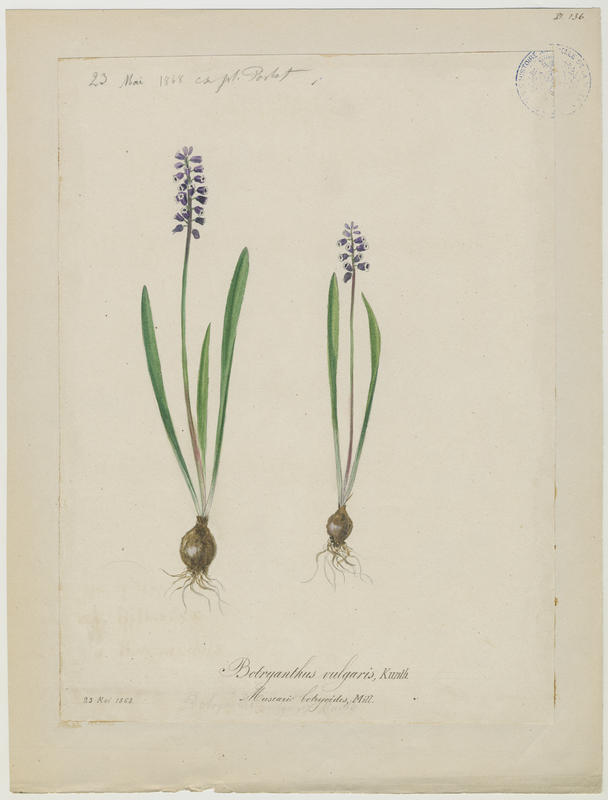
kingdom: Plantae
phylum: Tracheophyta
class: Liliopsida
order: Asparagales
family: Asparagaceae
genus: Muscari
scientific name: Muscari botryoides
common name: Compact grape-hyacinth
